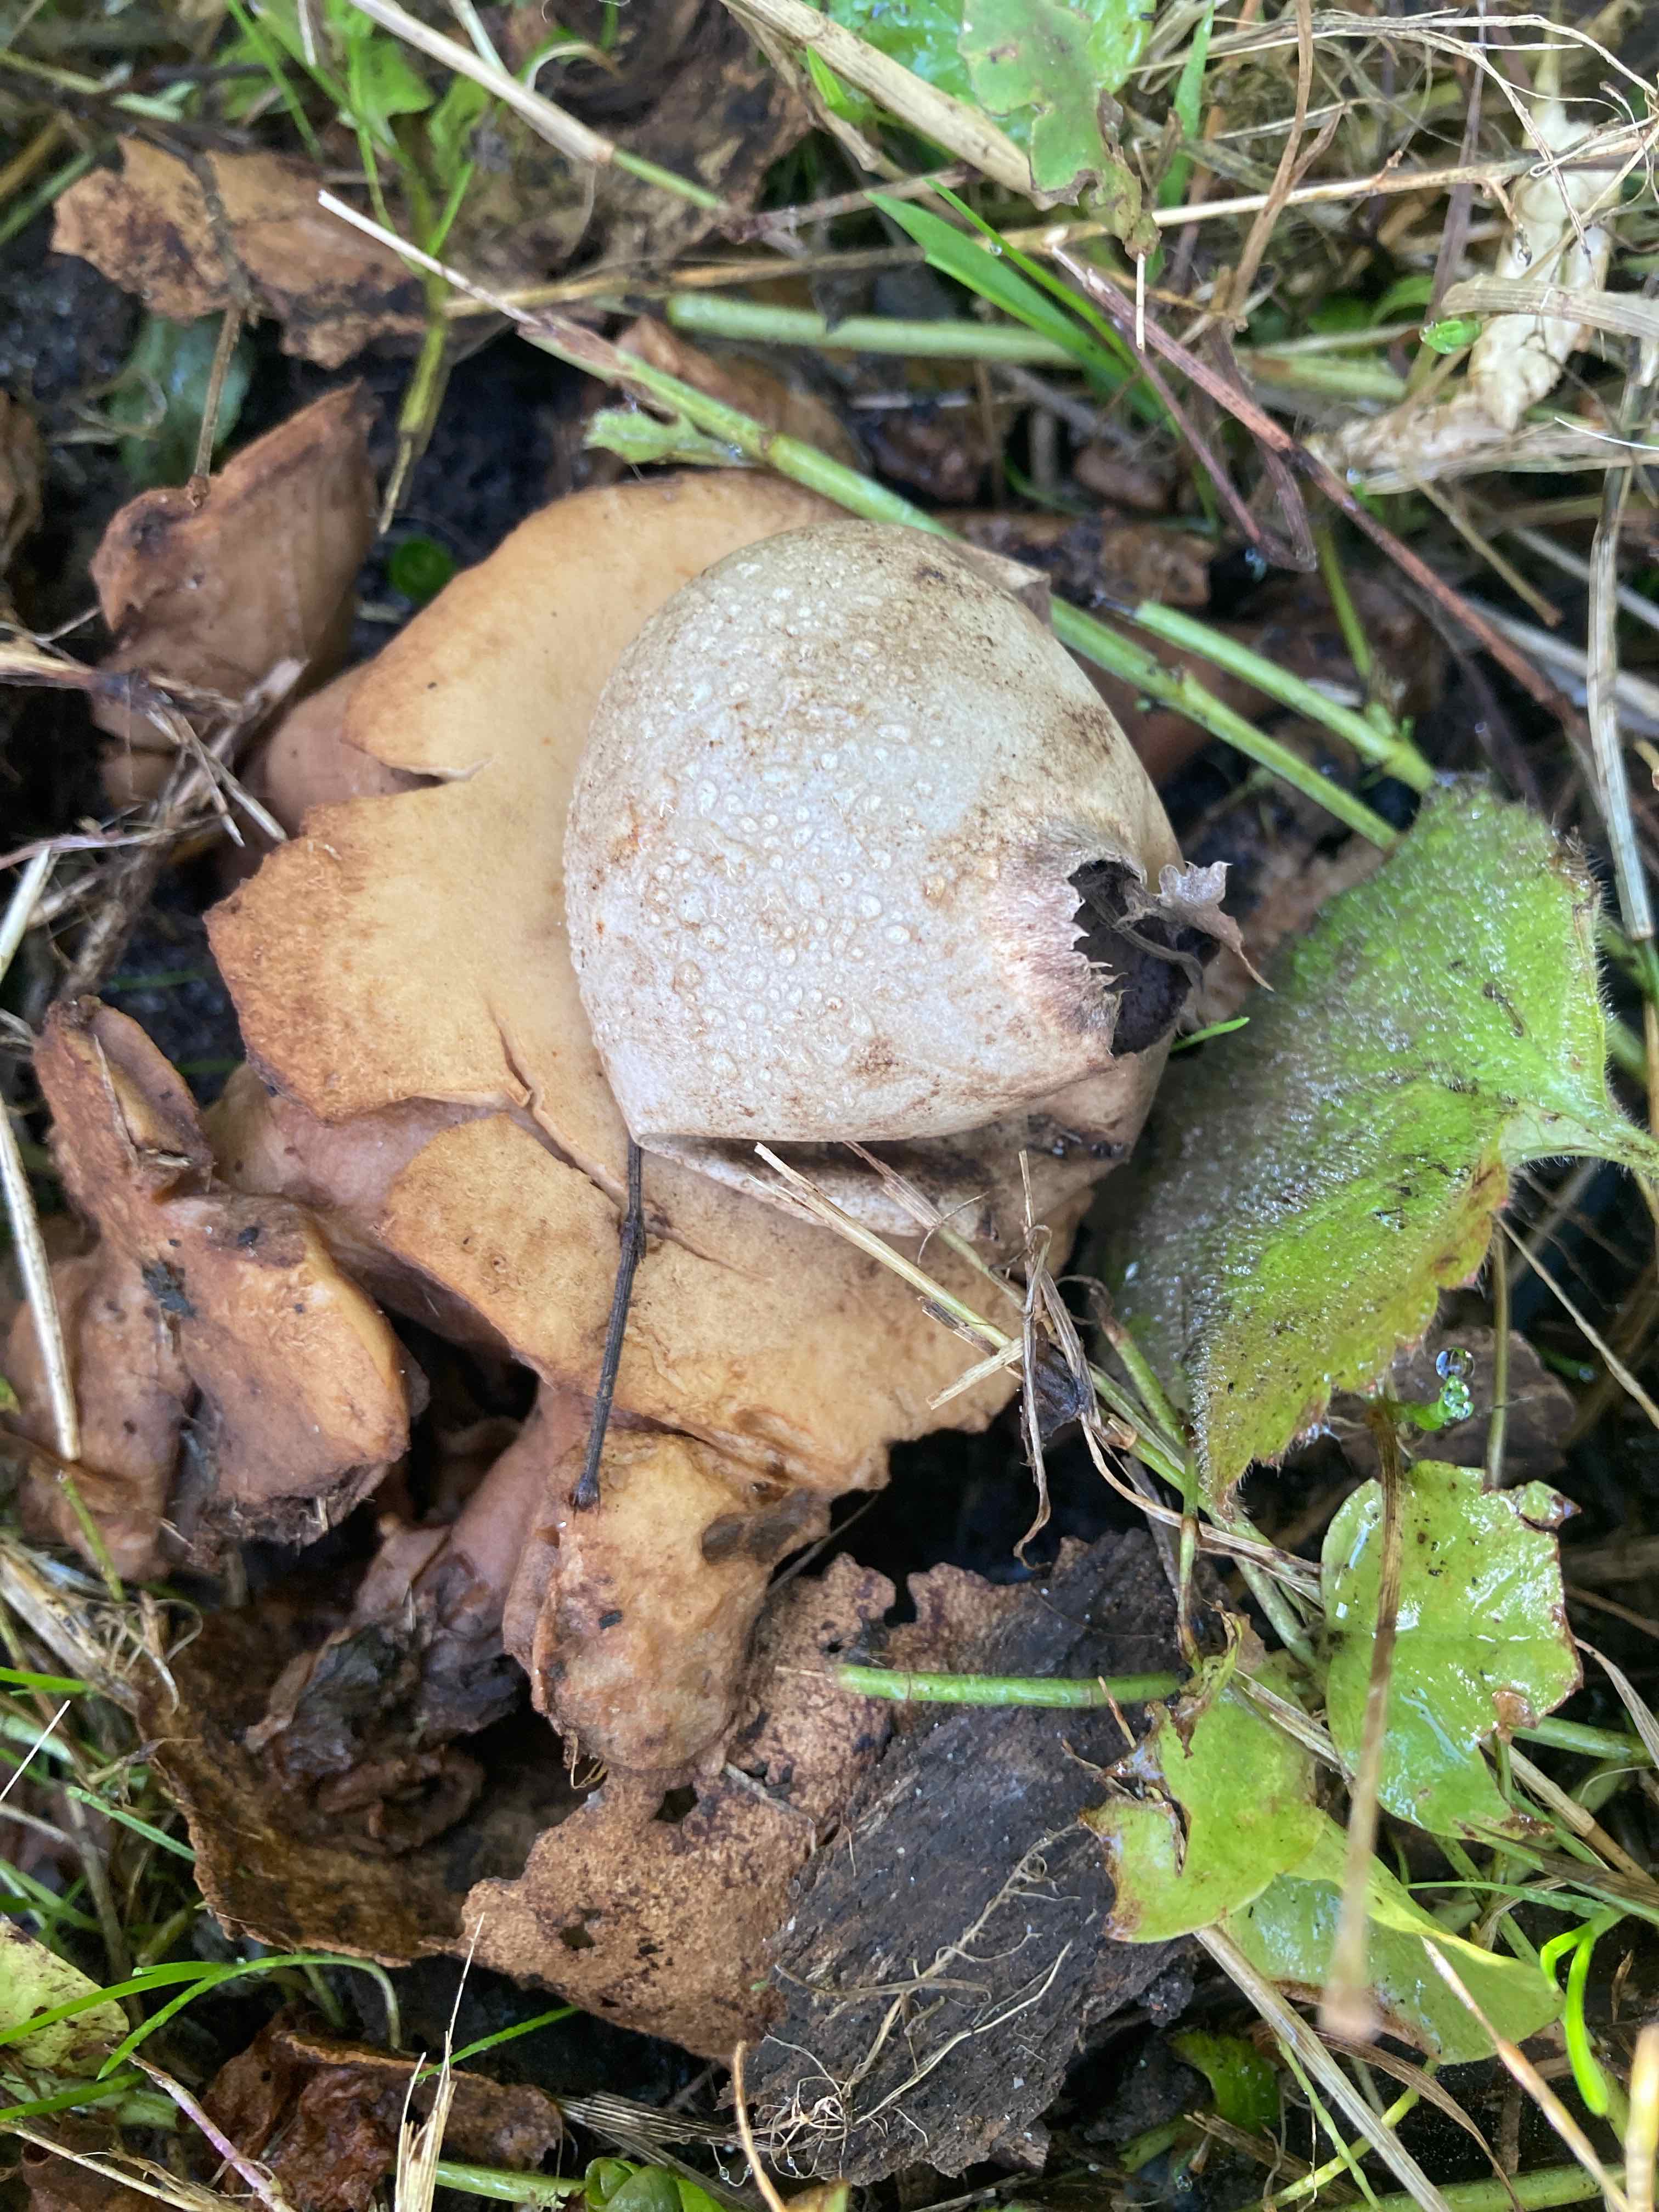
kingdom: Fungi
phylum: Basidiomycota
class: Agaricomycetes
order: Geastrales
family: Geastraceae
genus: Geastrum
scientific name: Geastrum michelianum
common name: kødet stjernebold
